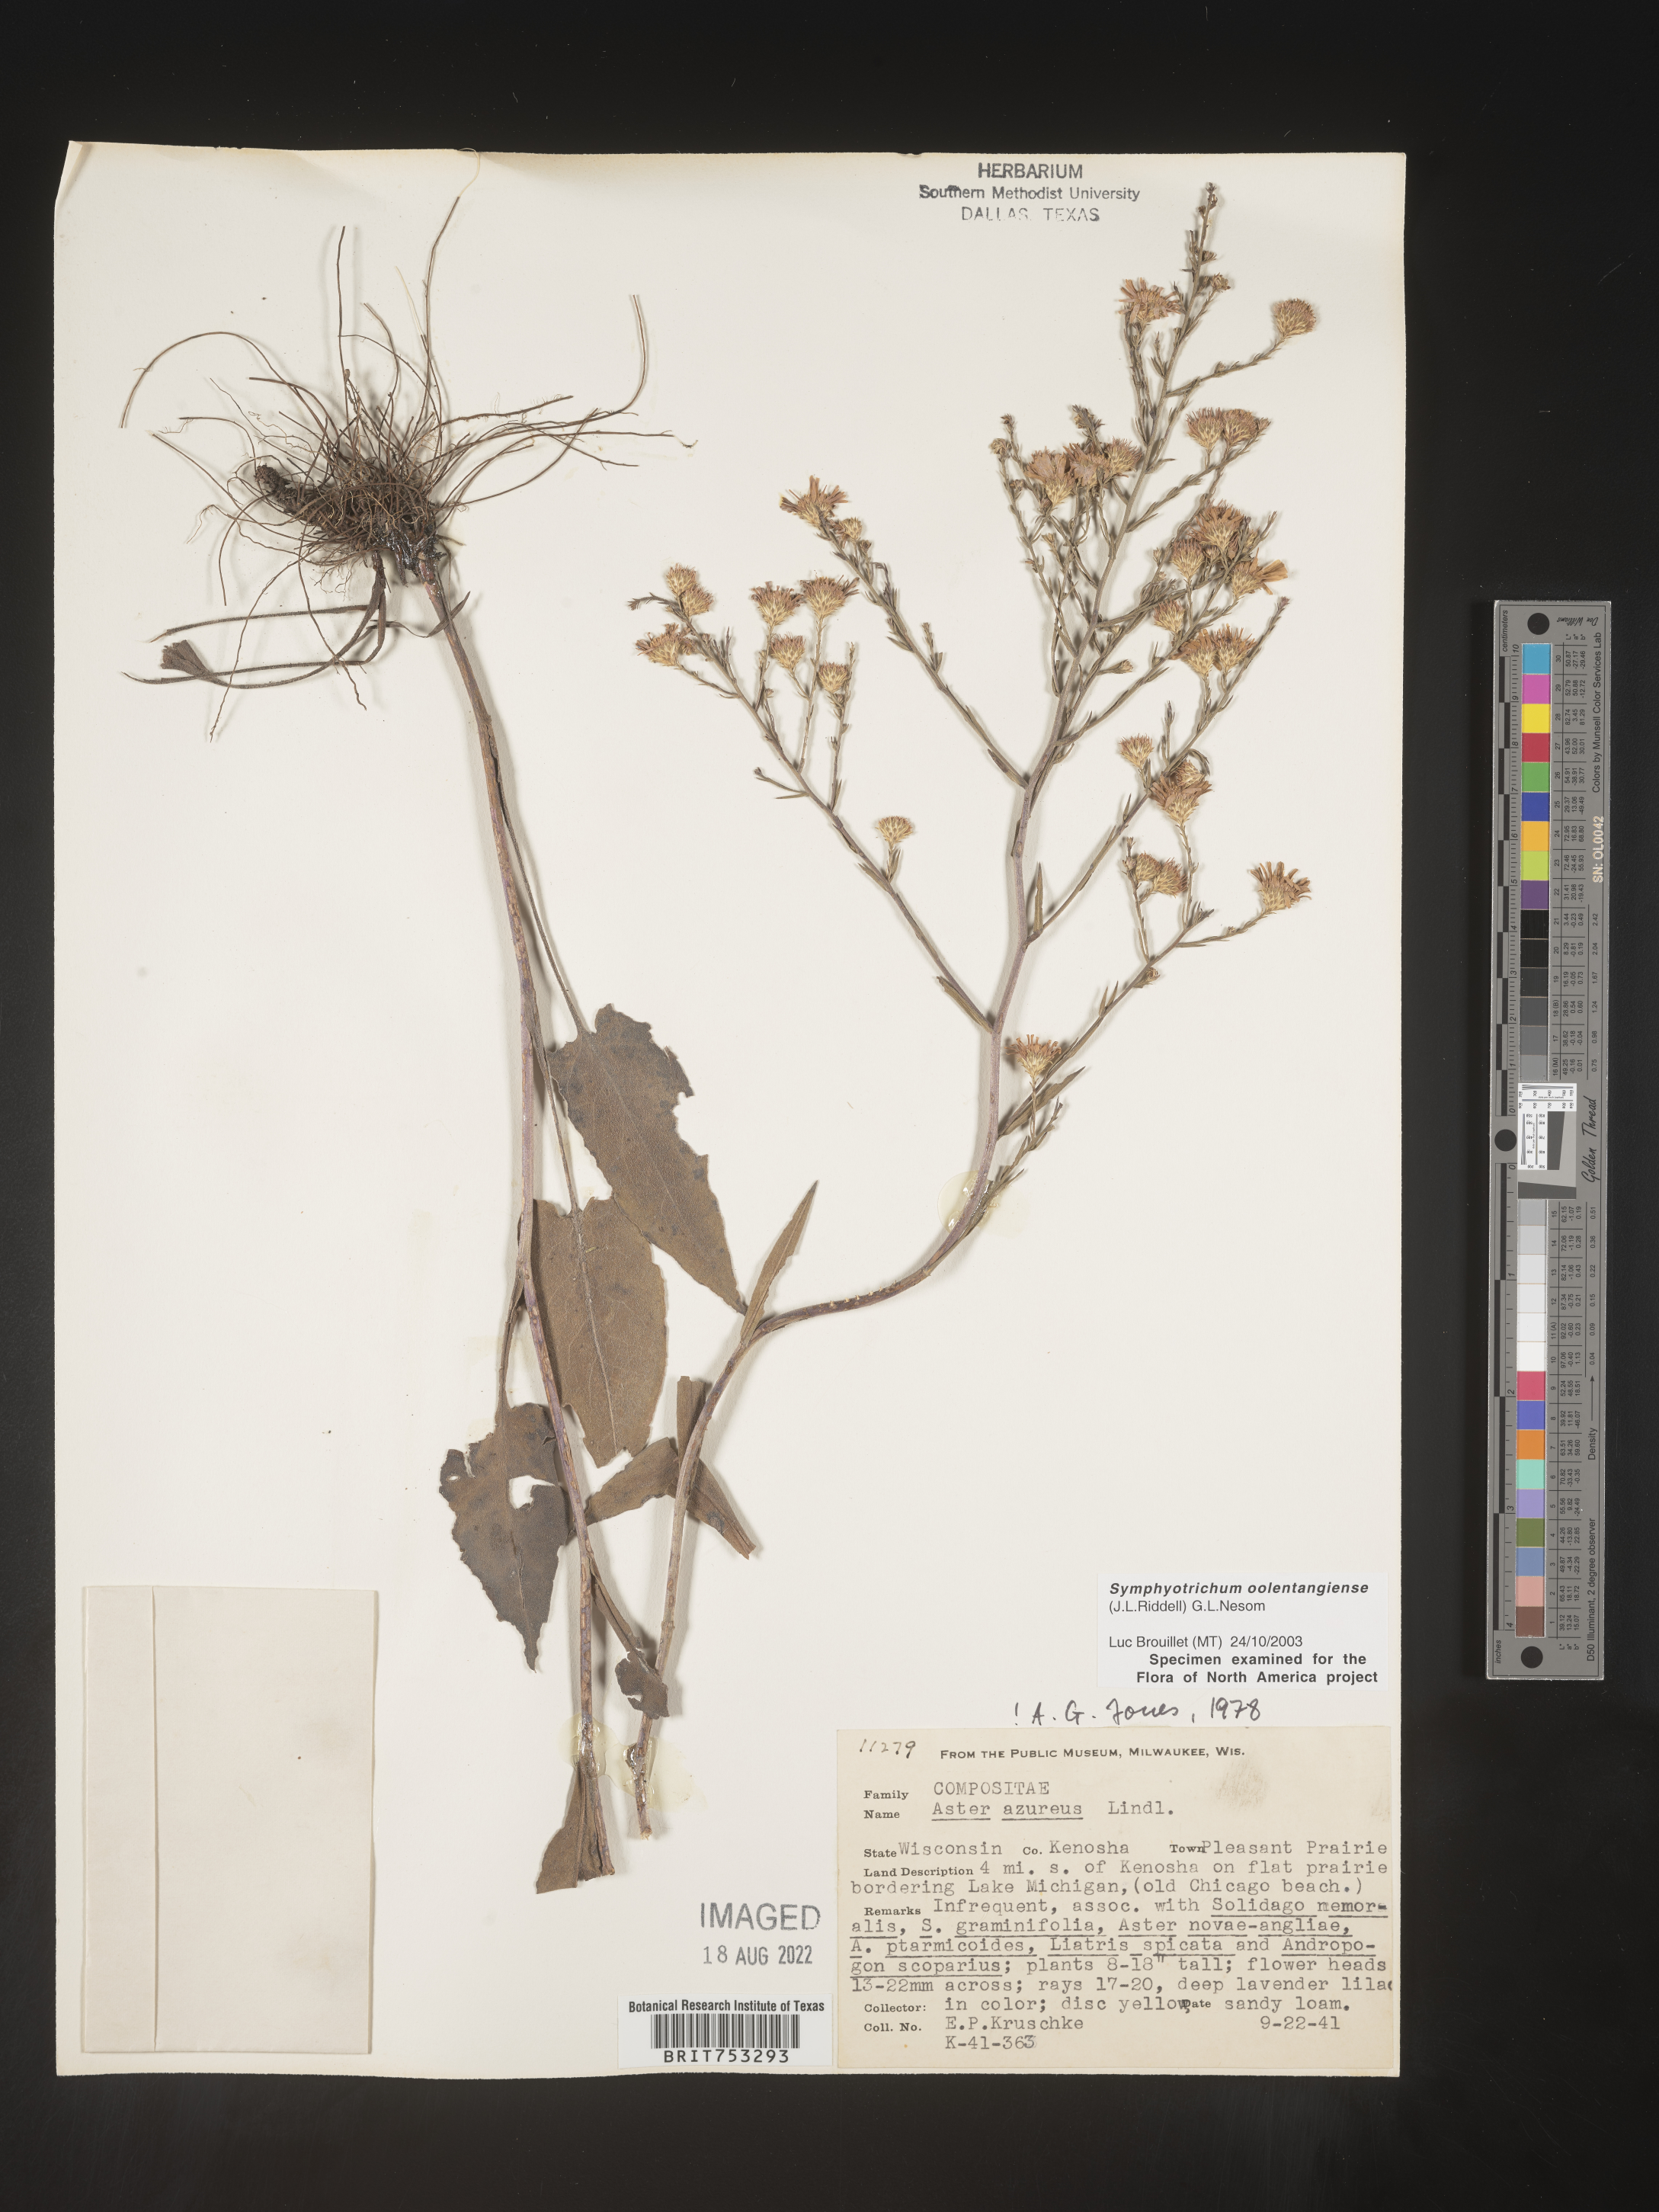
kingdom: Plantae
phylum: Tracheophyta
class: Magnoliopsida
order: Asterales
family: Asteraceae
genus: Symphyotrichum
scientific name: Symphyotrichum oolentangiense
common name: Azure aster
